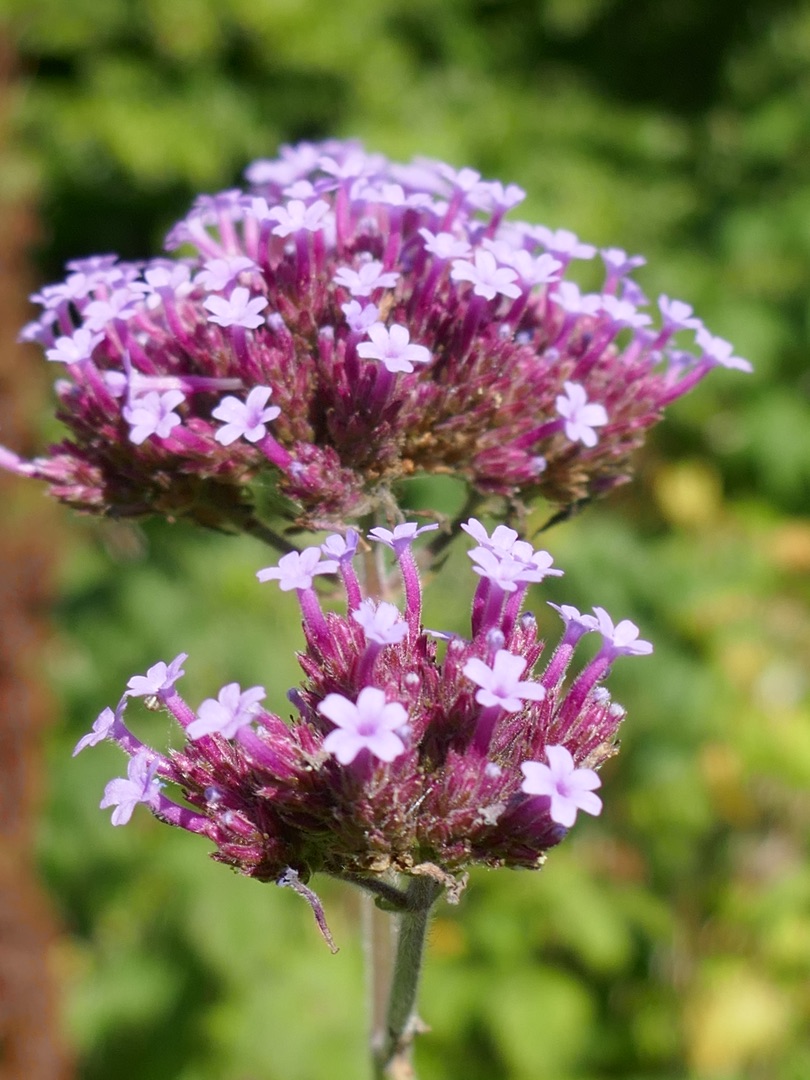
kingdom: Plantae
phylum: Tracheophyta
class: Magnoliopsida
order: Lamiales
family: Verbenaceae
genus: Verbena
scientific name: Verbena bonariensis
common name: Kæmpe-jernurt
